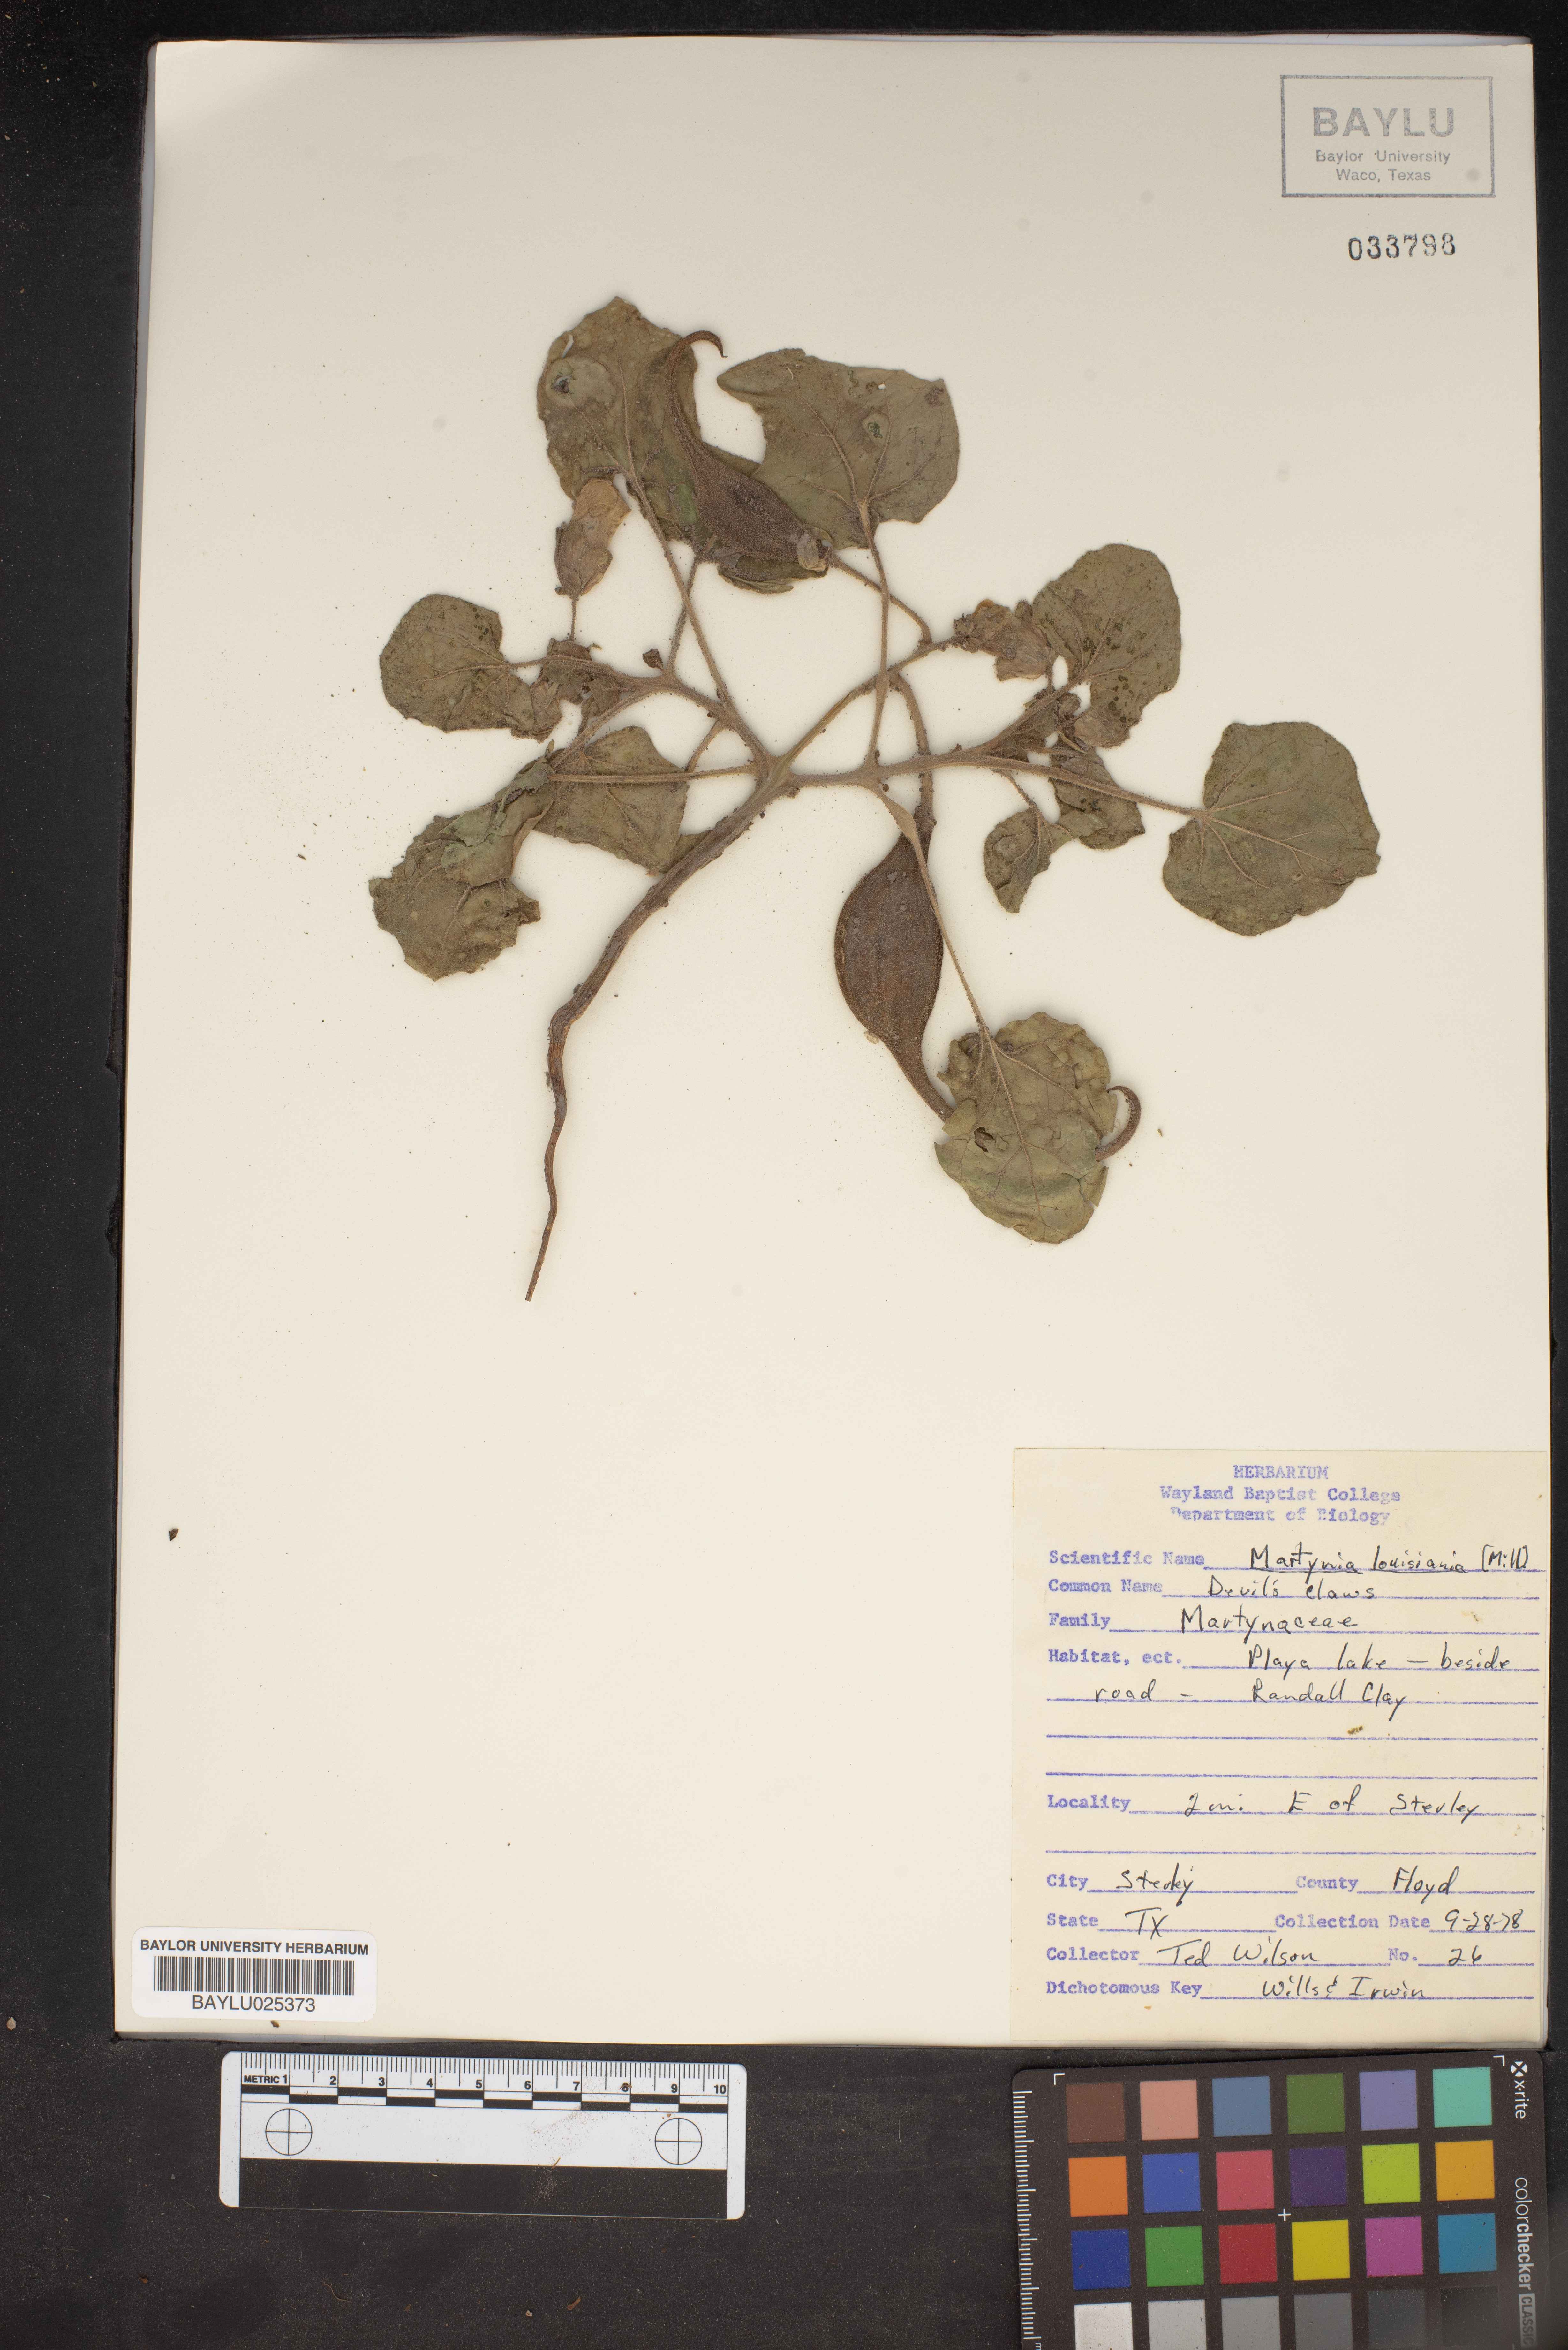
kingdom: Plantae
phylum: Tracheophyta
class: Magnoliopsida
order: Lamiales
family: Martyniaceae
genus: Proboscidea
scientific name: Proboscidea louisianica
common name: Elephant tusks
